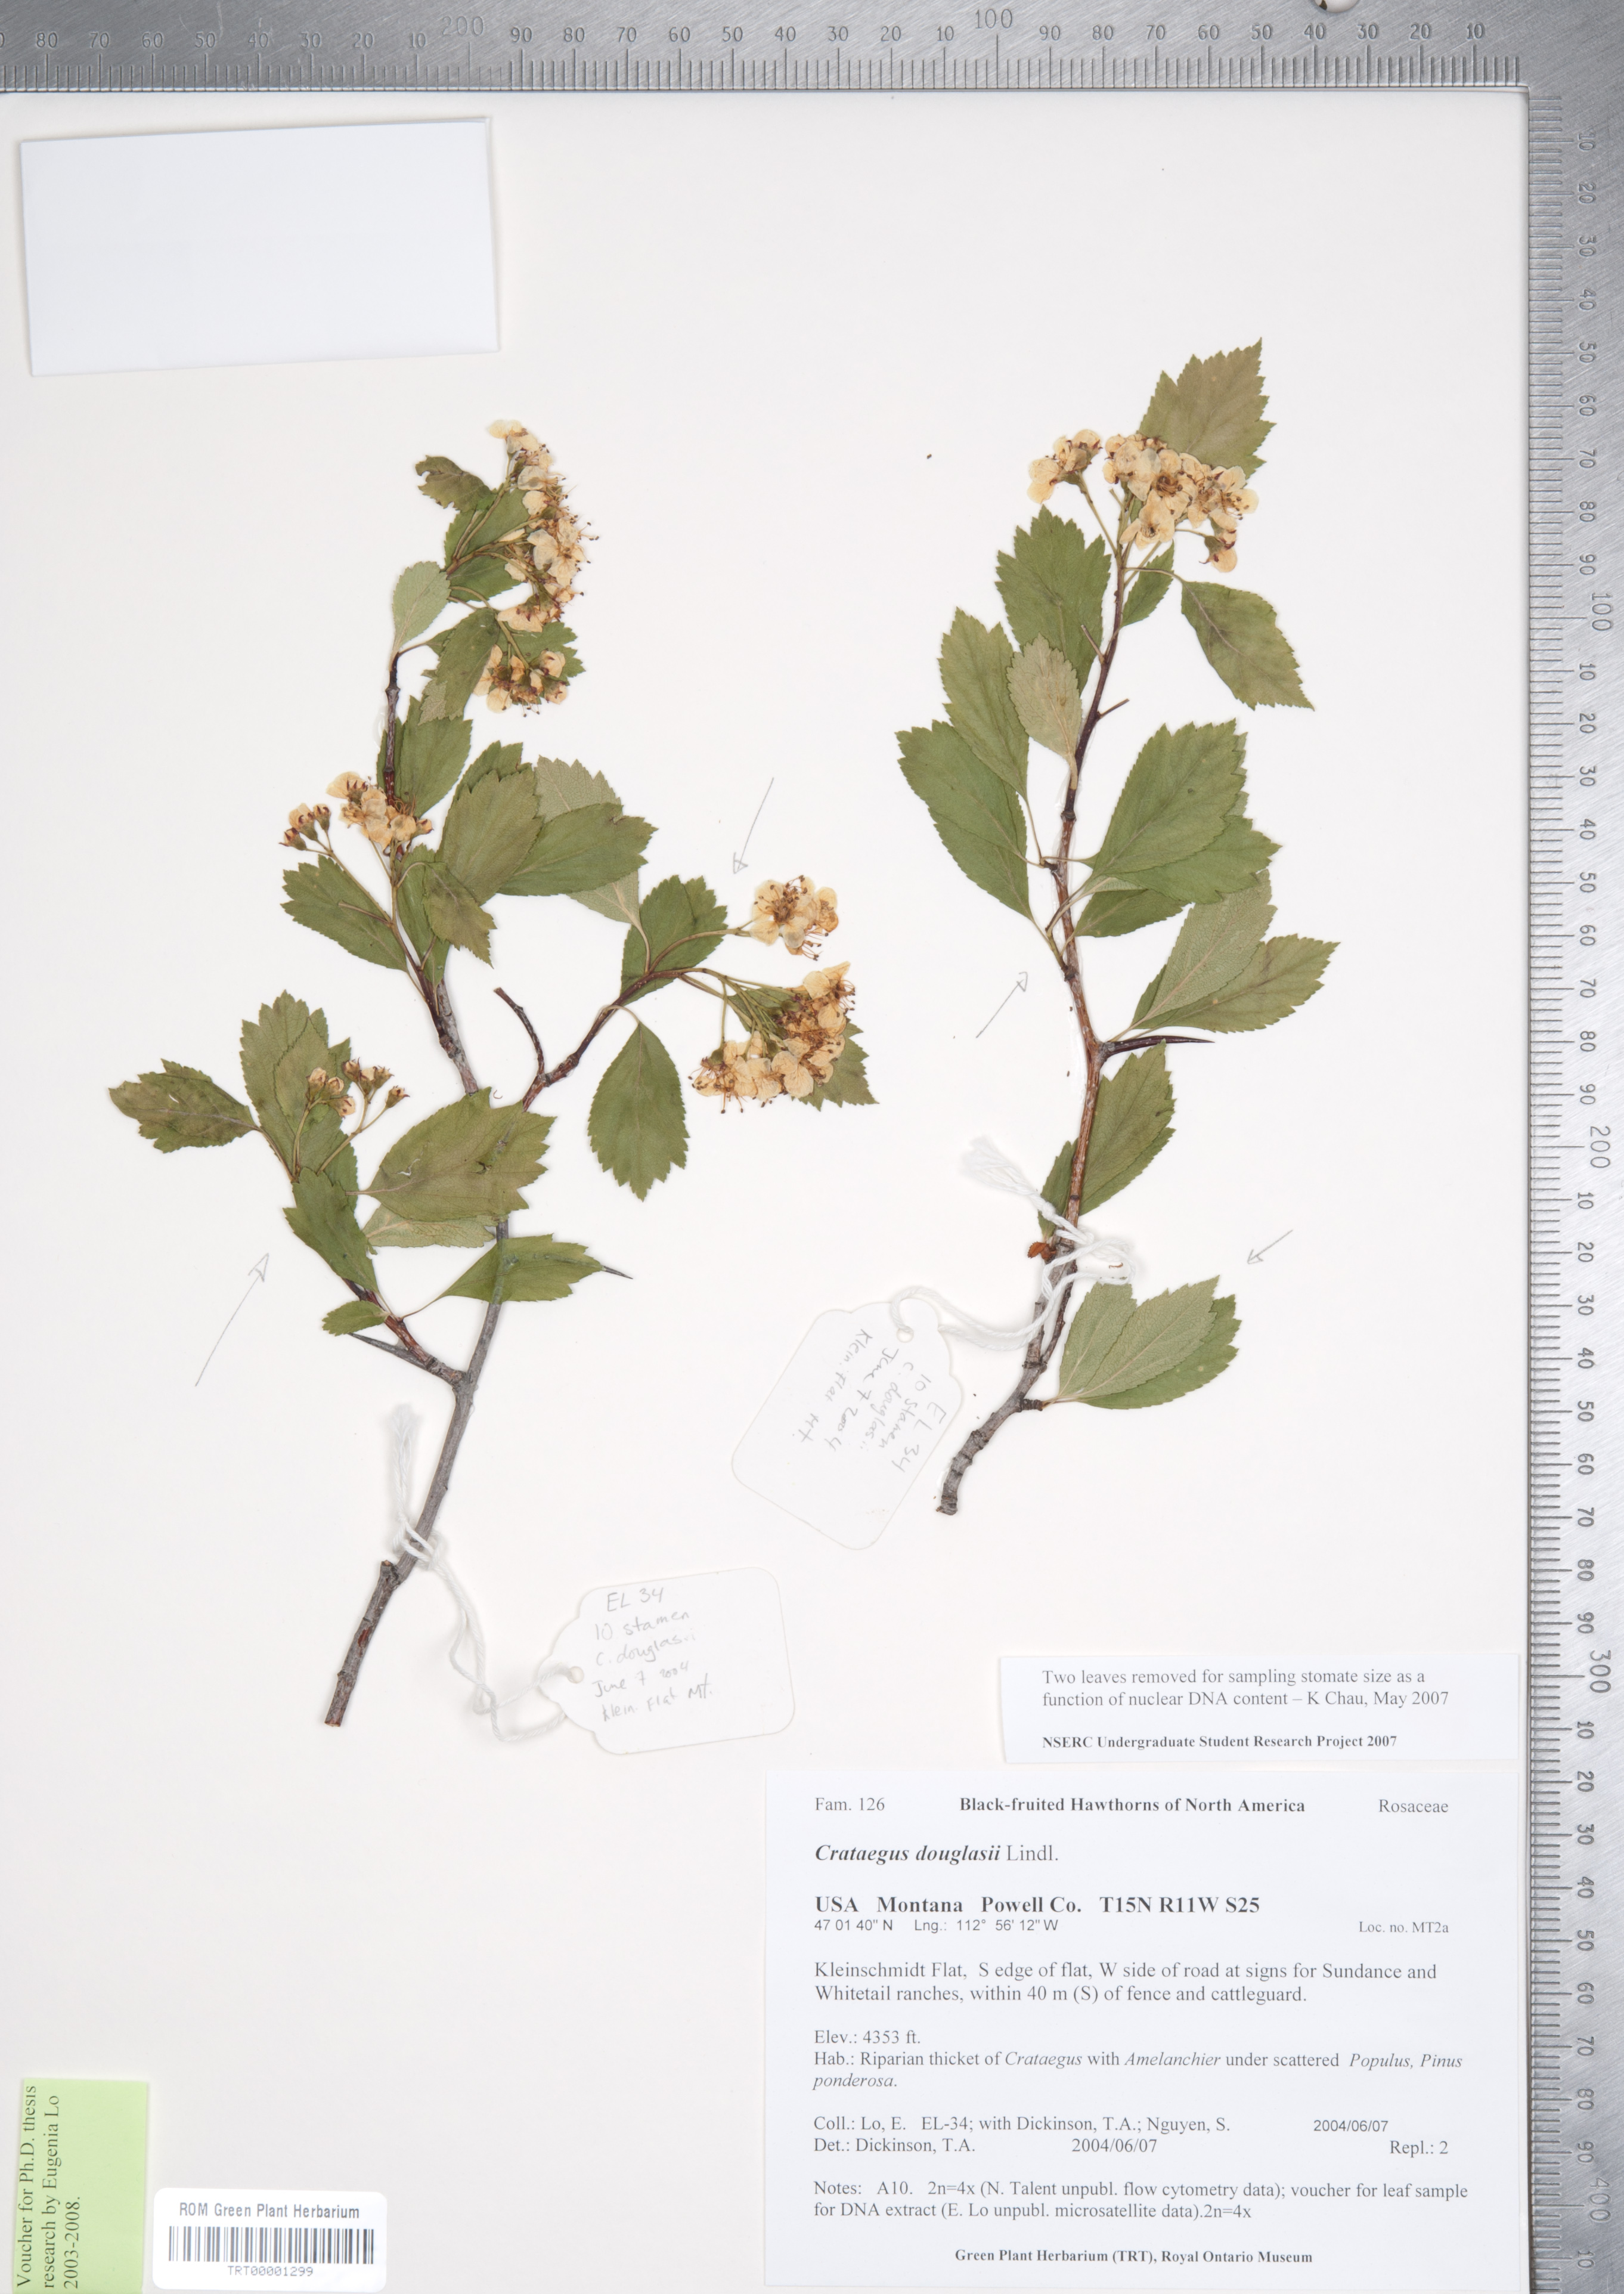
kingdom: Plantae
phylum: Tracheophyta
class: Magnoliopsida
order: Rosales
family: Rosaceae
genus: Crataegus
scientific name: Crataegus douglasii
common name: Black hawthorn
